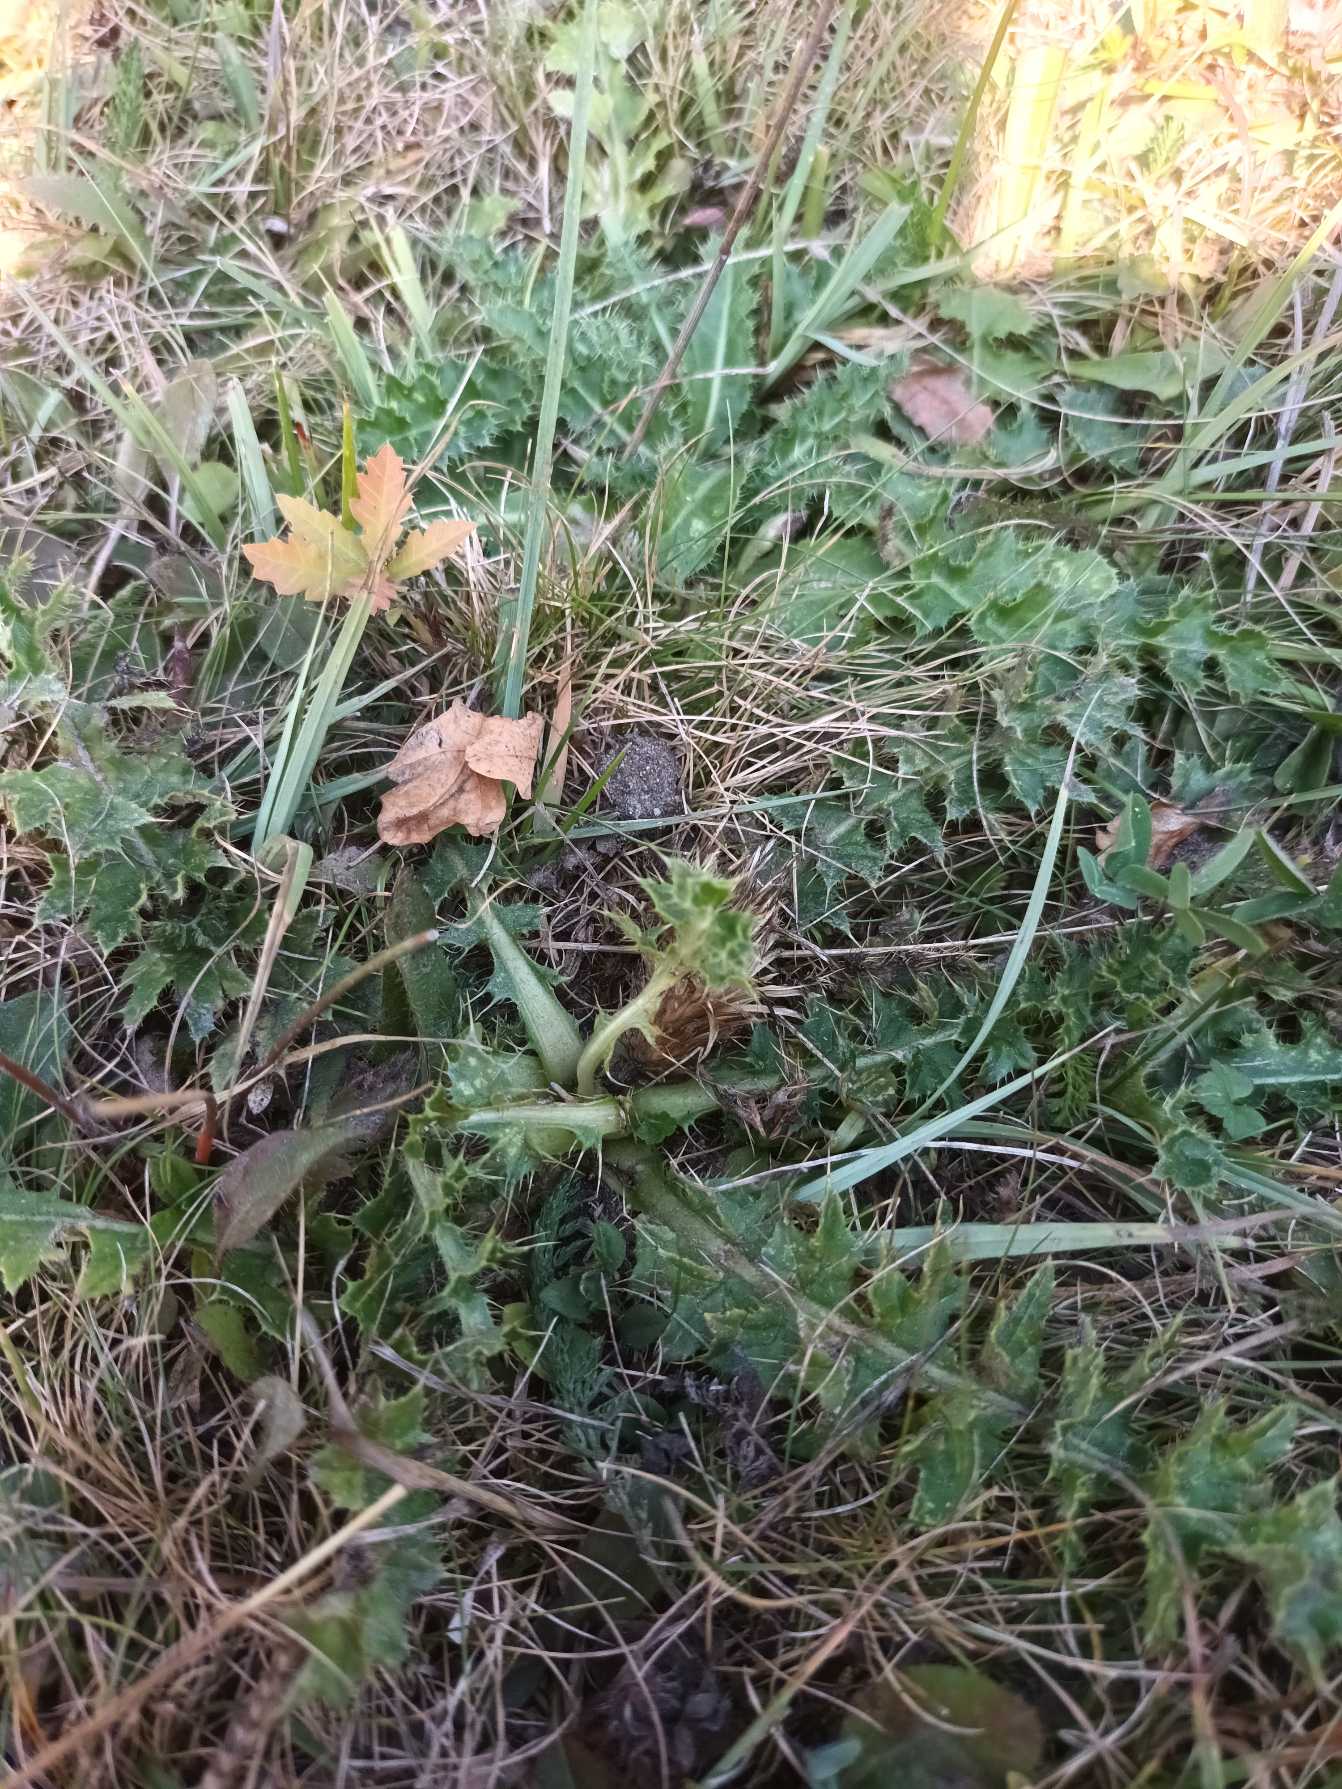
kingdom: Plantae
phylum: Tracheophyta
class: Magnoliopsida
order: Asterales
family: Asteraceae
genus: Cirsium
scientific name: Cirsium acaule
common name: Lav tidsel
